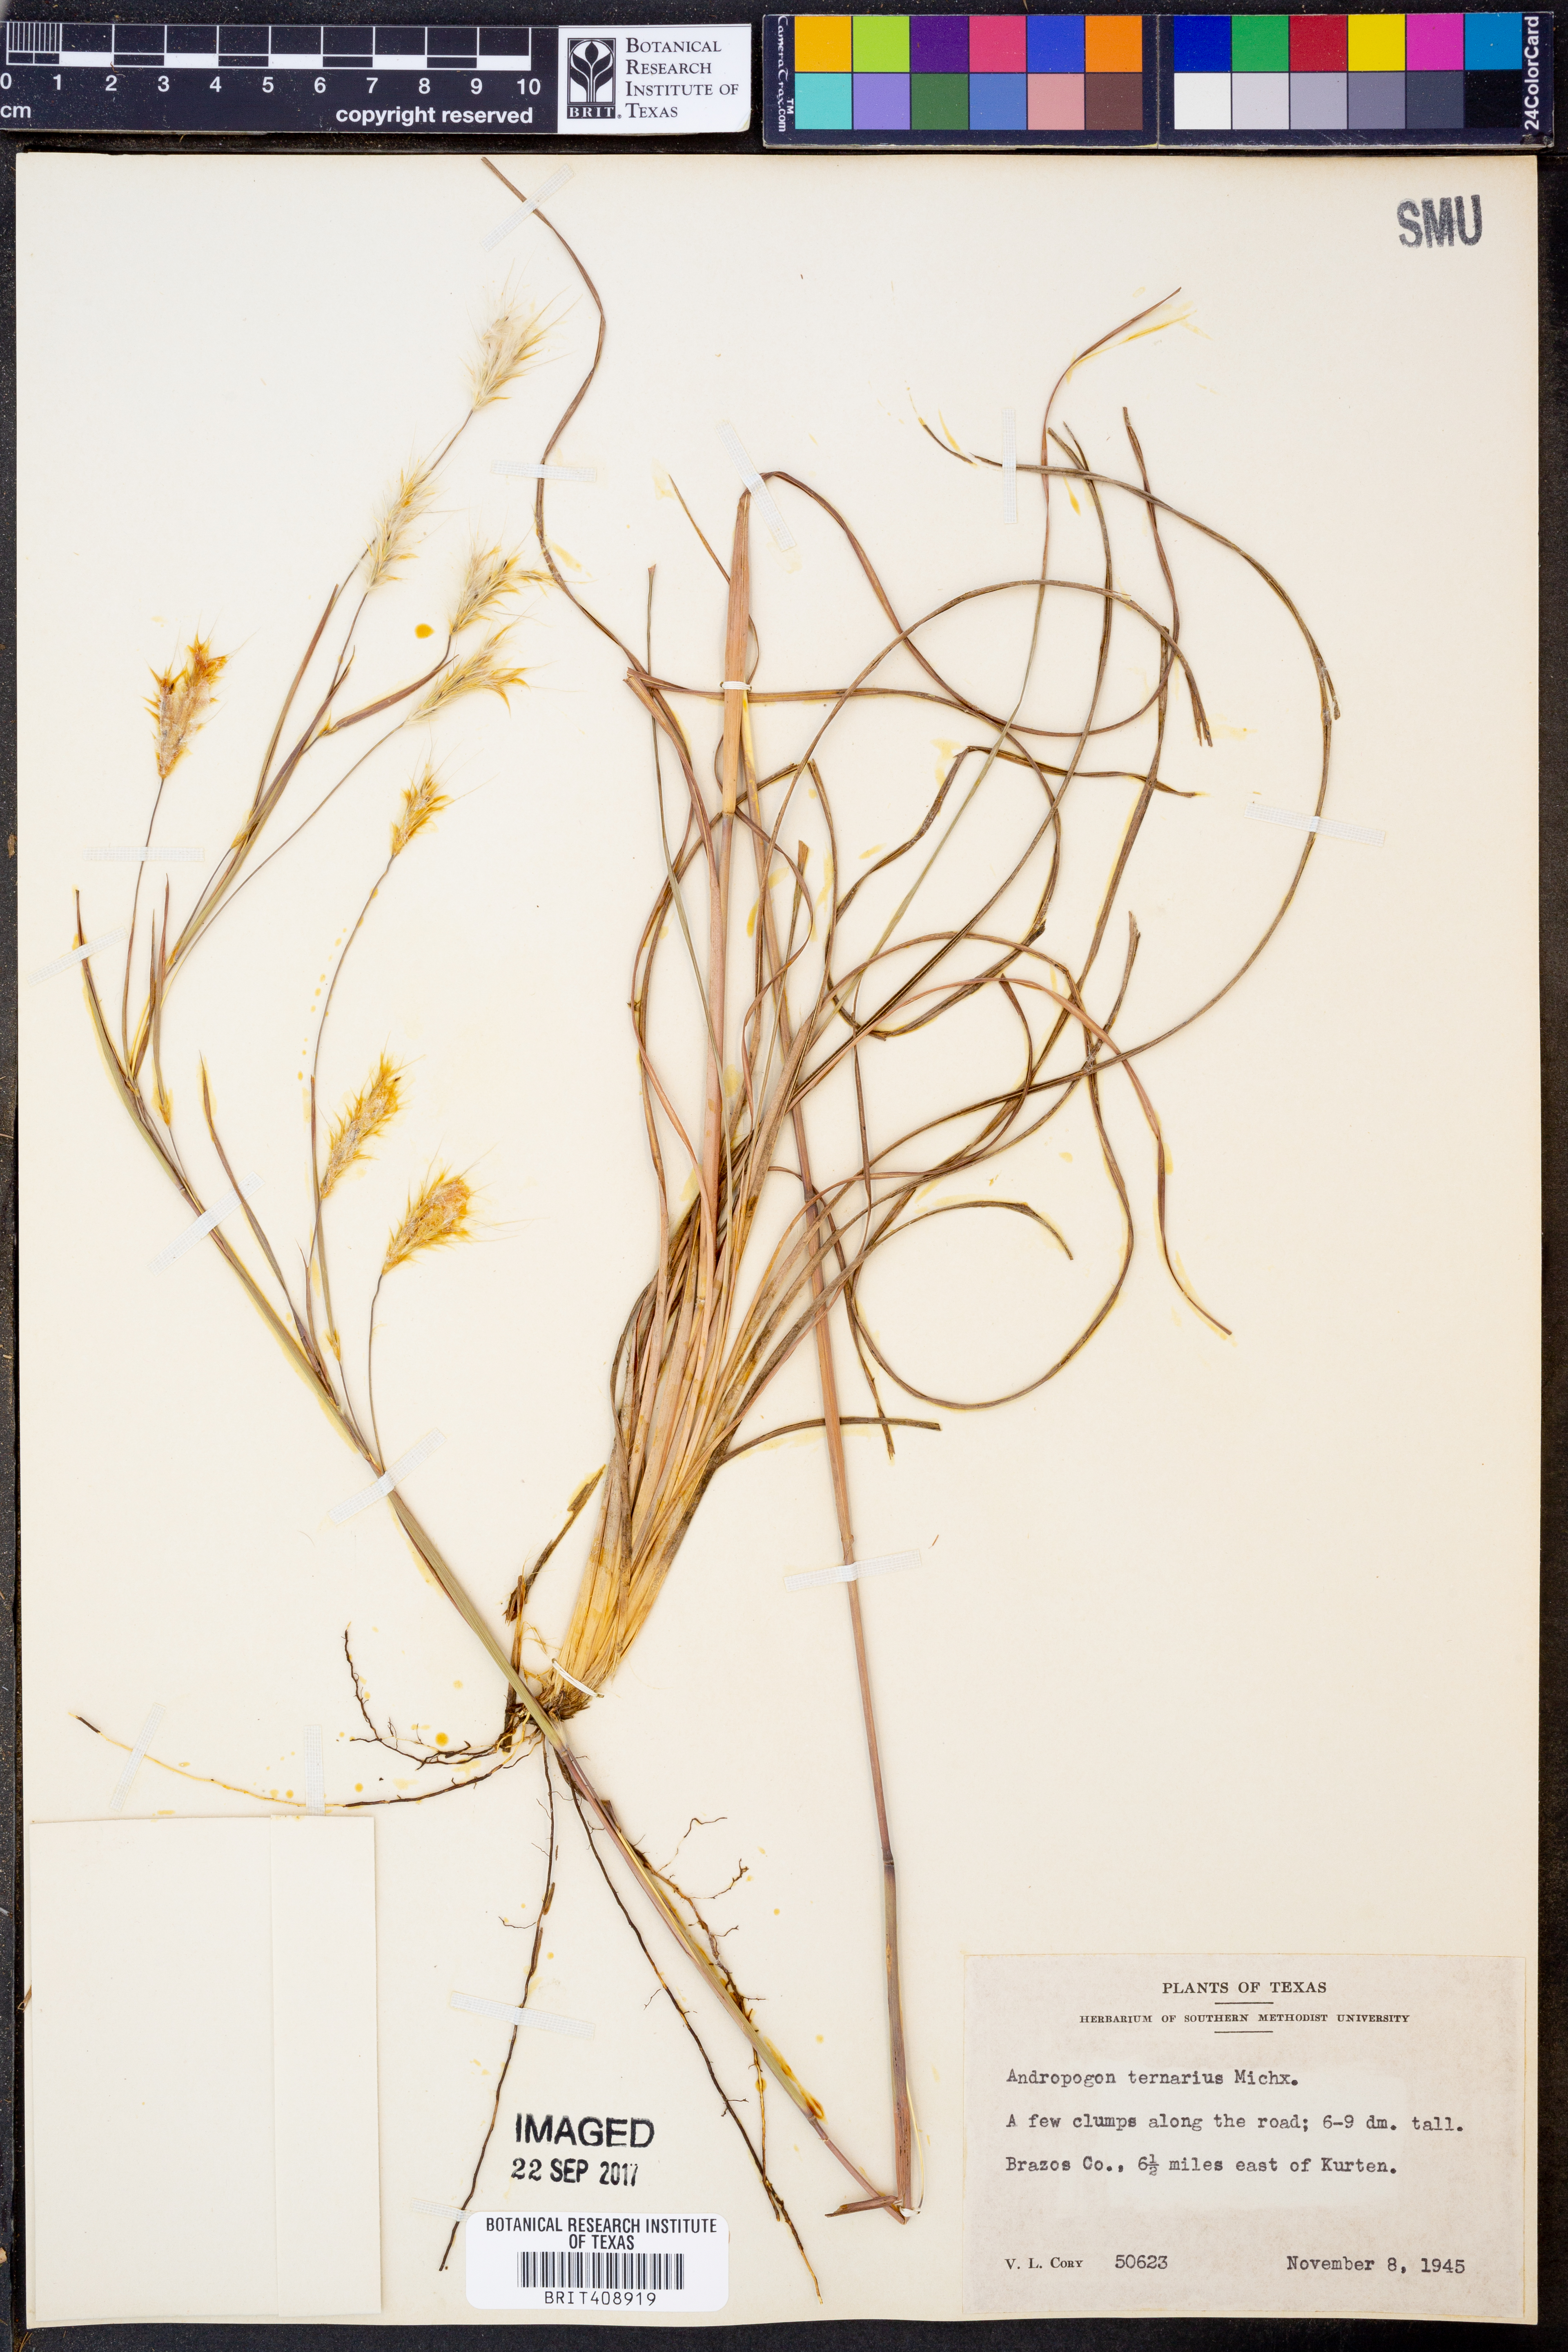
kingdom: Plantae
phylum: Tracheophyta
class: Liliopsida
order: Poales
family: Poaceae
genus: Andropogon
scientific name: Andropogon ternarius
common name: Split bluestem
